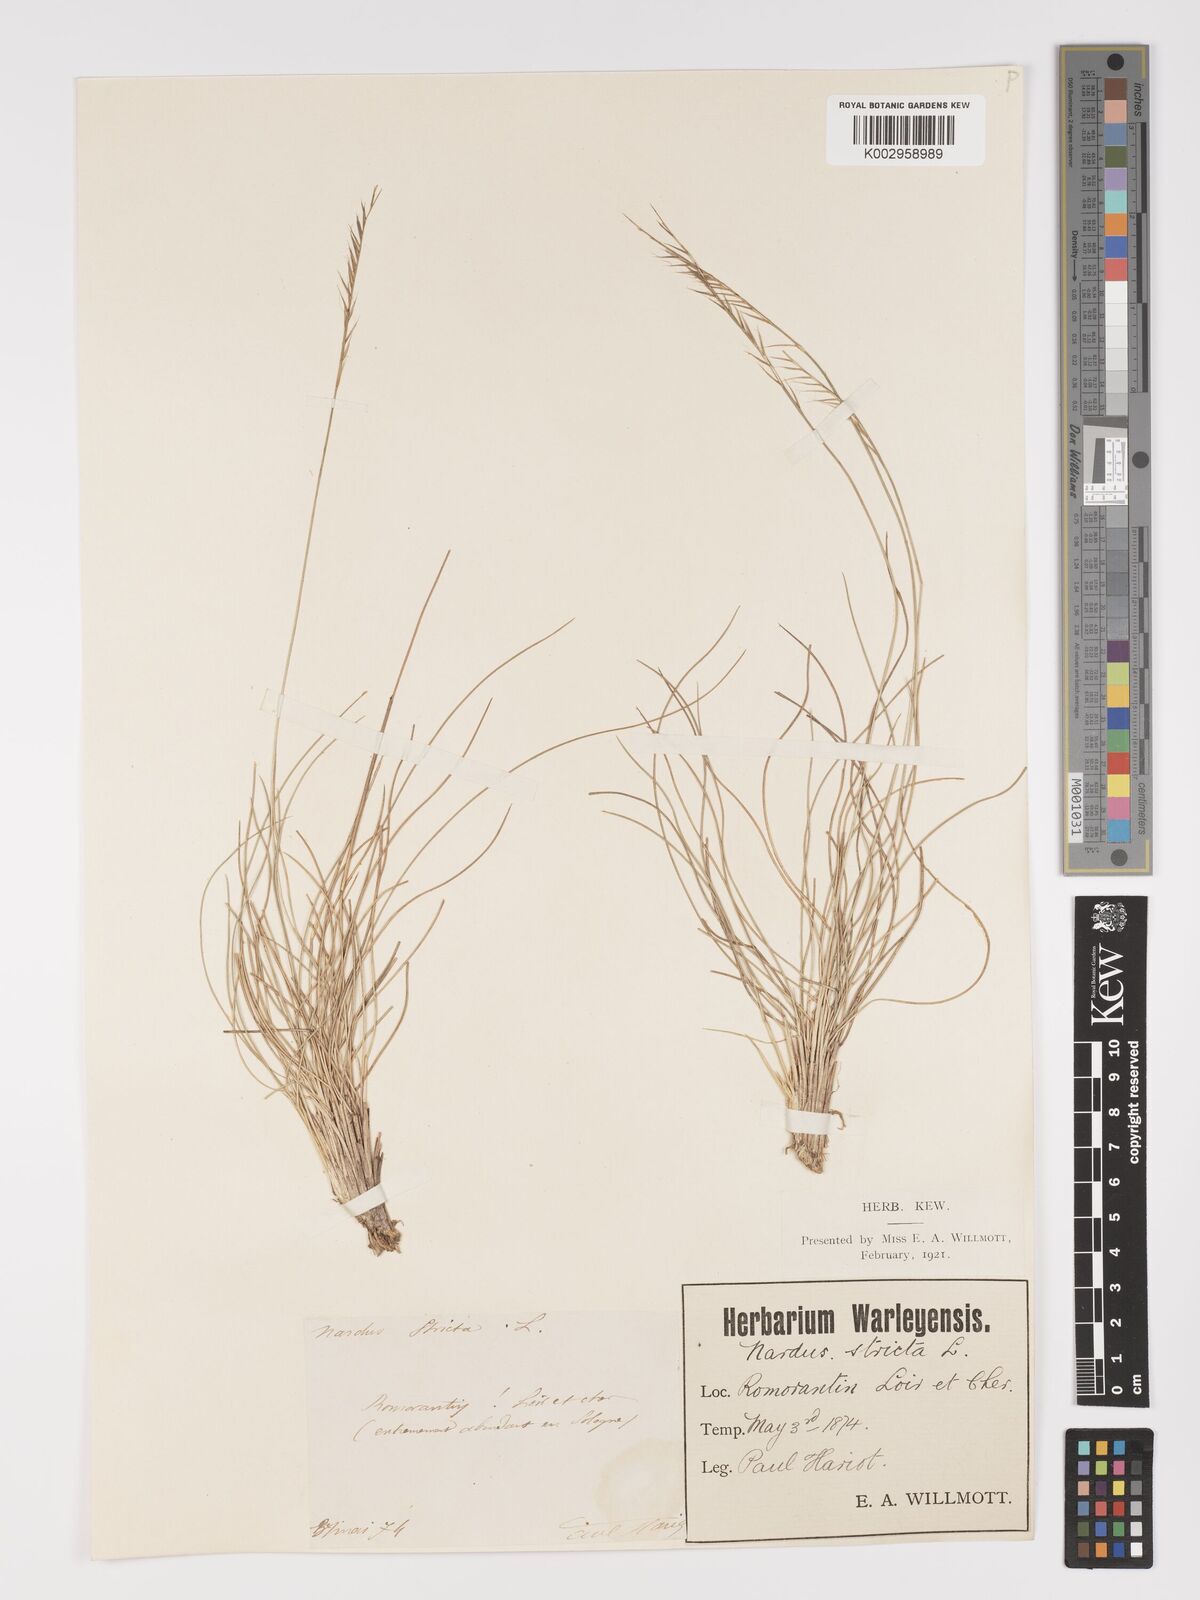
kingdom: Plantae
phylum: Tracheophyta
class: Liliopsida
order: Poales
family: Poaceae
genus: Nardus
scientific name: Nardus stricta
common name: Mat-grass
